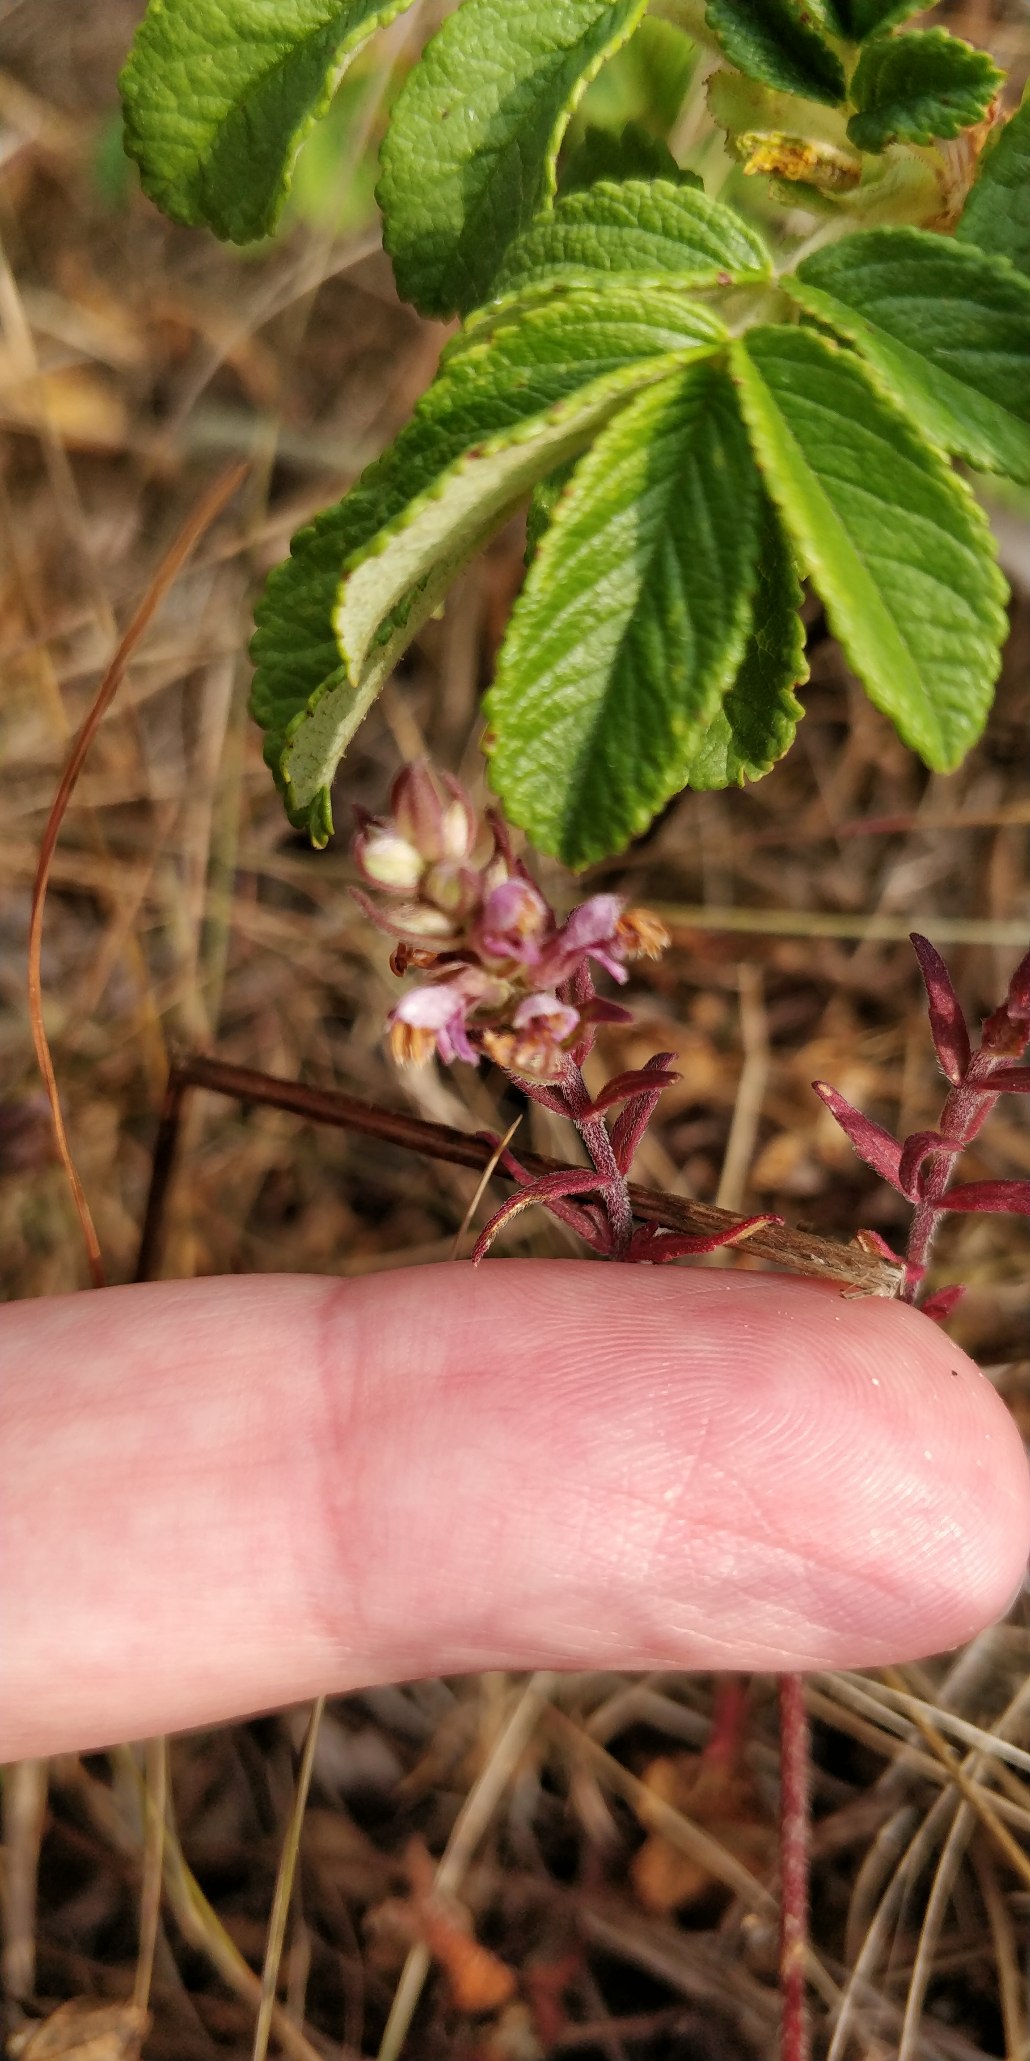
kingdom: Plantae
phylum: Tracheophyta
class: Magnoliopsida
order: Lamiales
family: Orobanchaceae
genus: Odontites
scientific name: Odontites vulgaris
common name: Høst-rødtop
